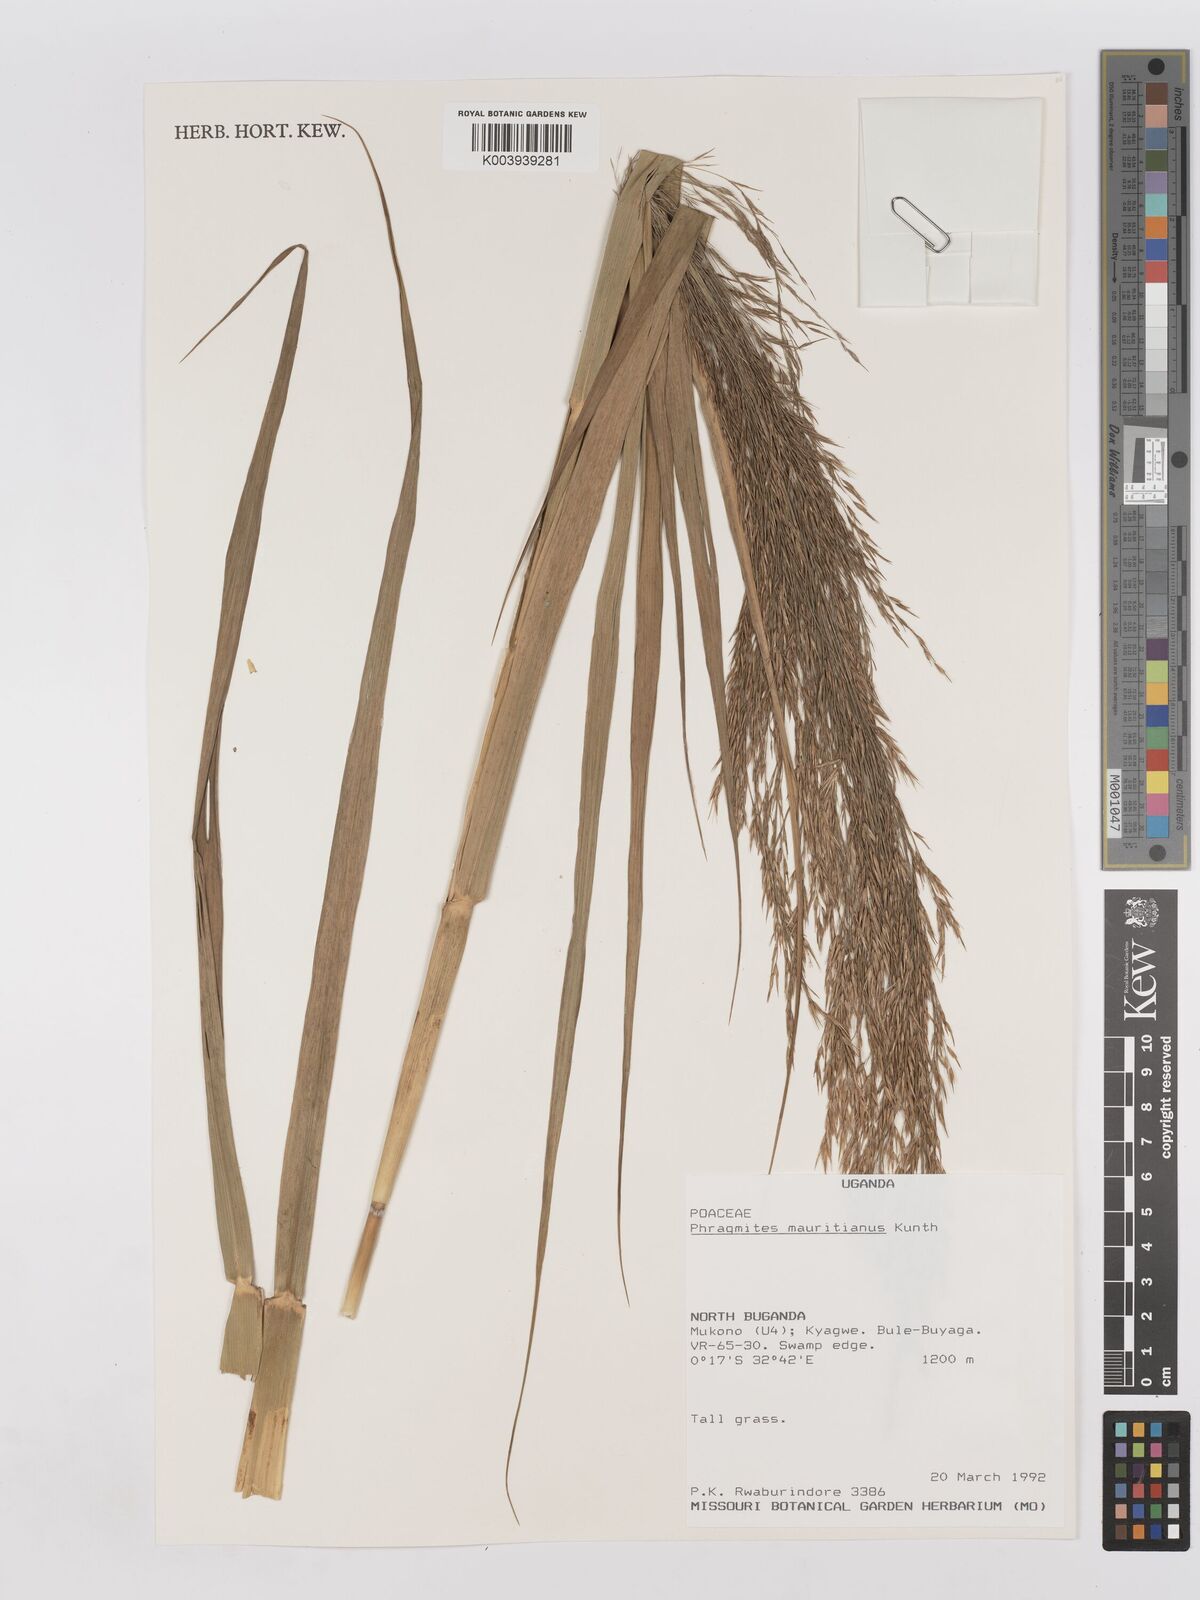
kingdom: Plantae
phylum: Tracheophyta
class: Liliopsida
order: Poales
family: Poaceae
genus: Phragmites
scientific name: Phragmites mauritianus
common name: Reed grass
